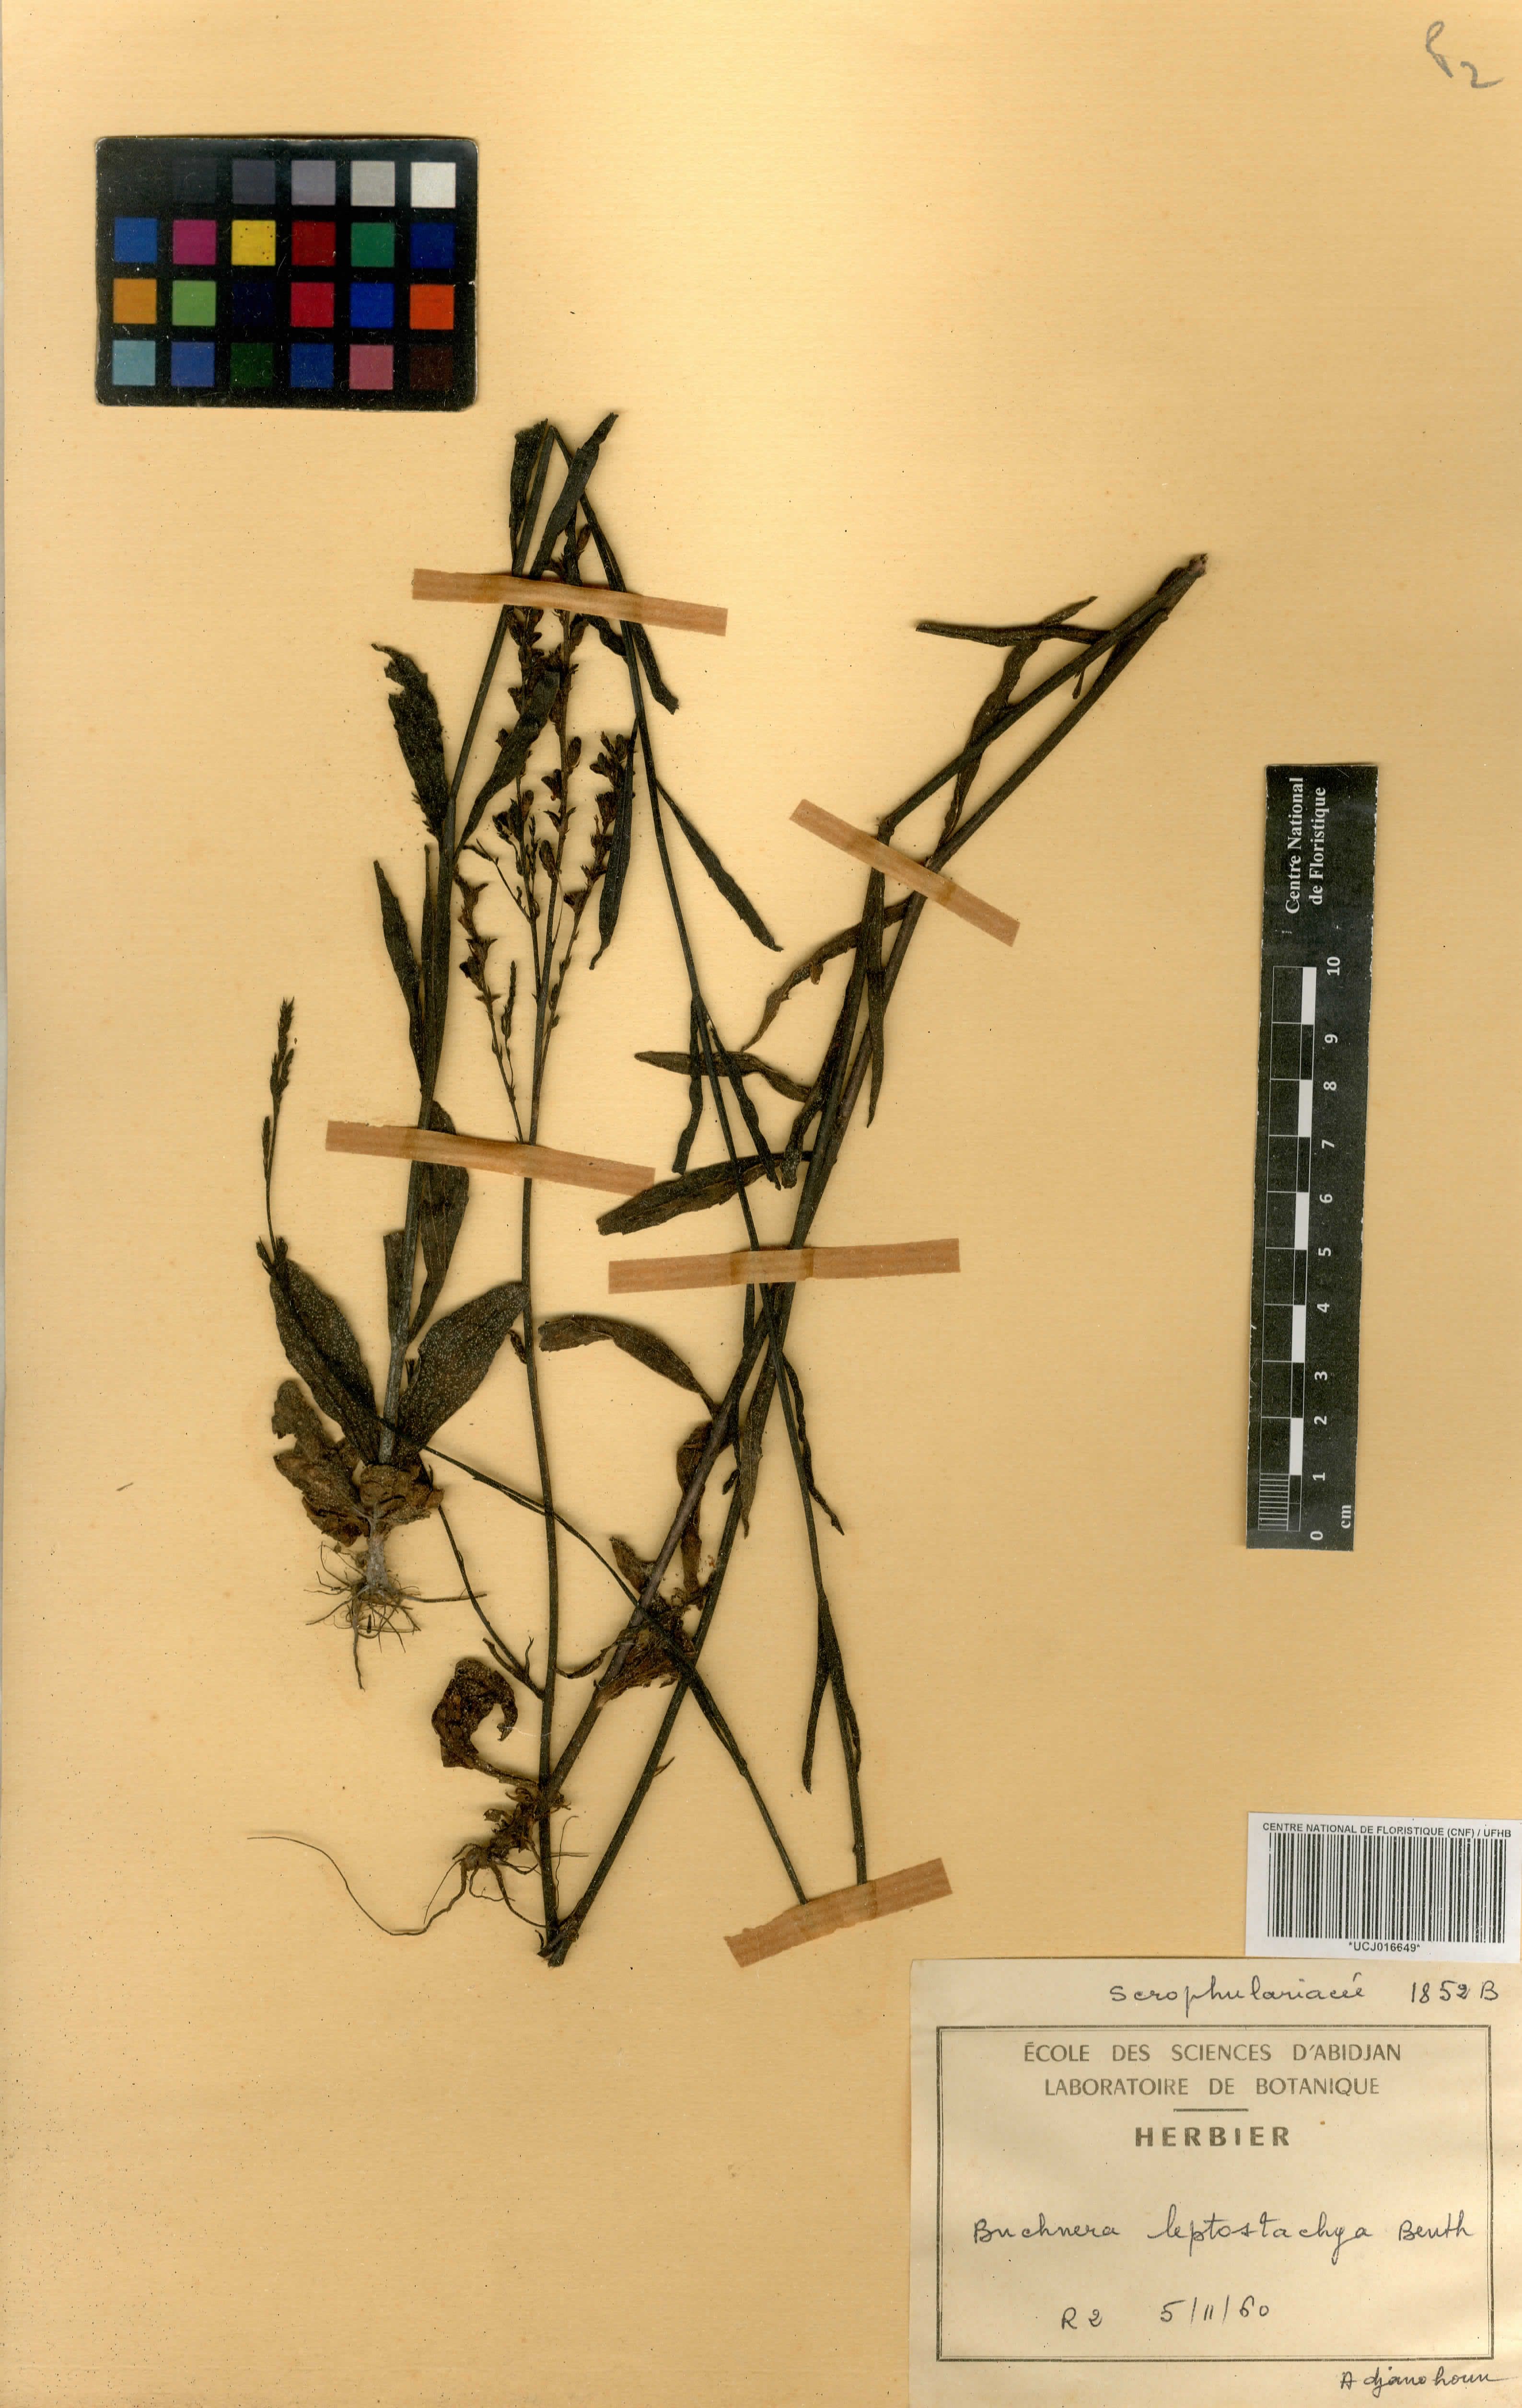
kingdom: Plantae
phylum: Tracheophyta
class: Magnoliopsida
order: Lamiales
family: Orobanchaceae
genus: Buchnera
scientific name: Buchnera leptostachya
